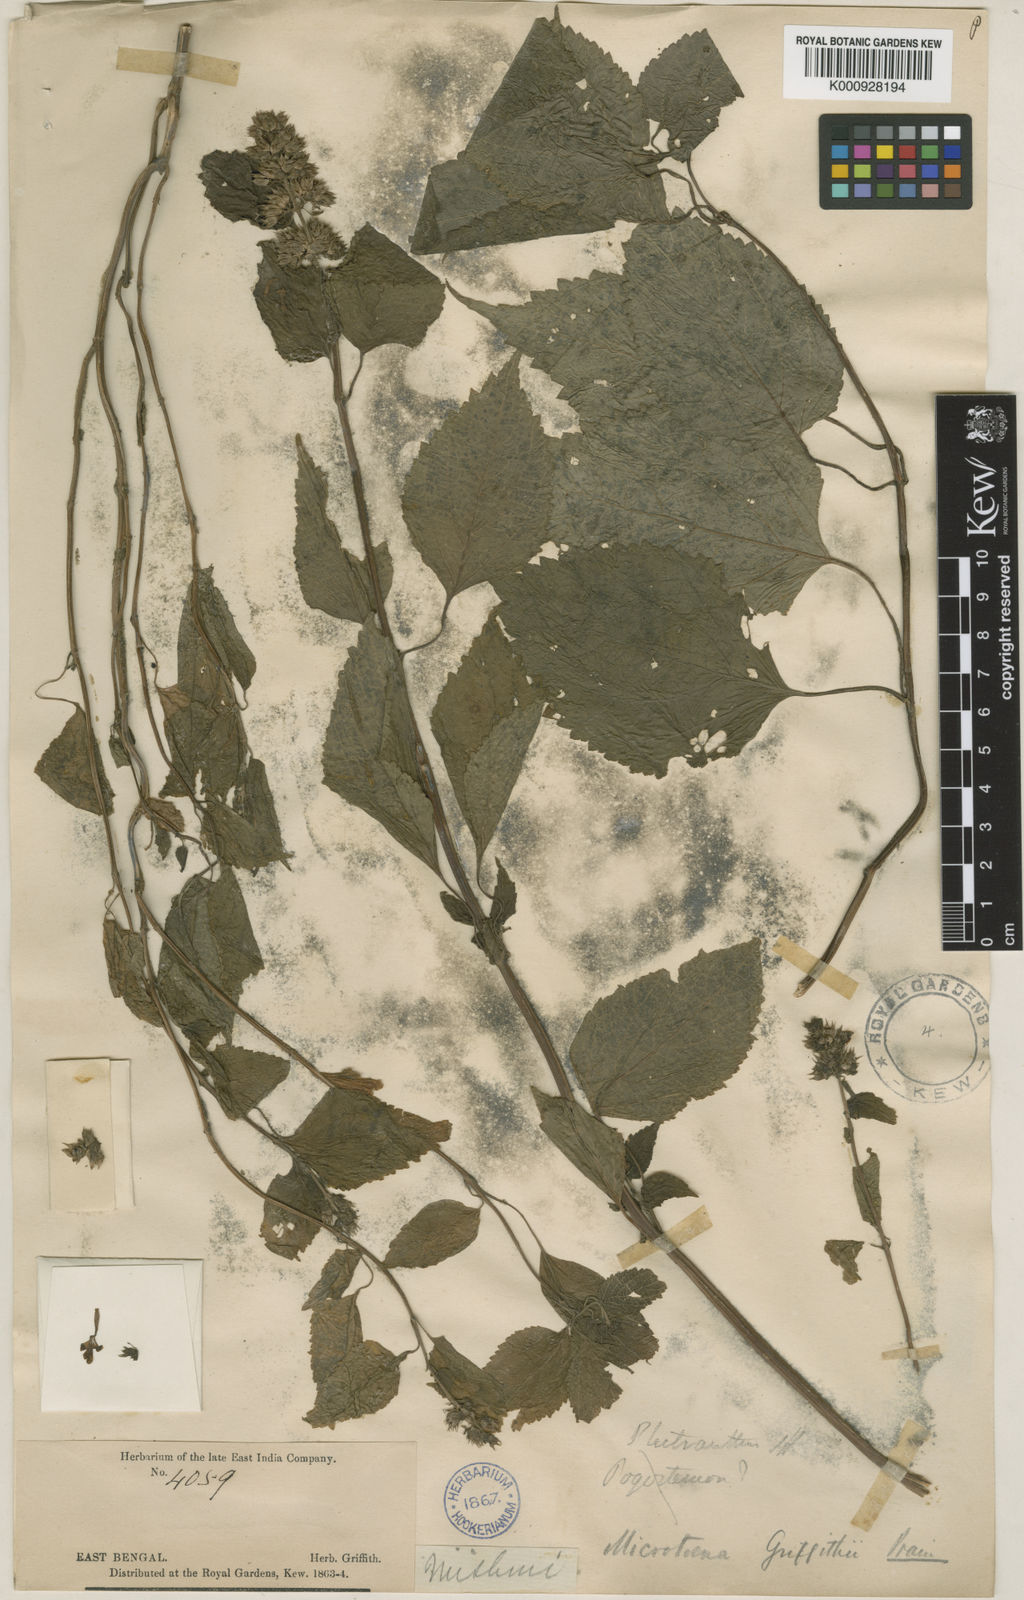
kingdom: Plantae
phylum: Tracheophyta
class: Magnoliopsida
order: Lamiales
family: Lamiaceae
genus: Microtoena
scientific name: Microtoena moupinensis
